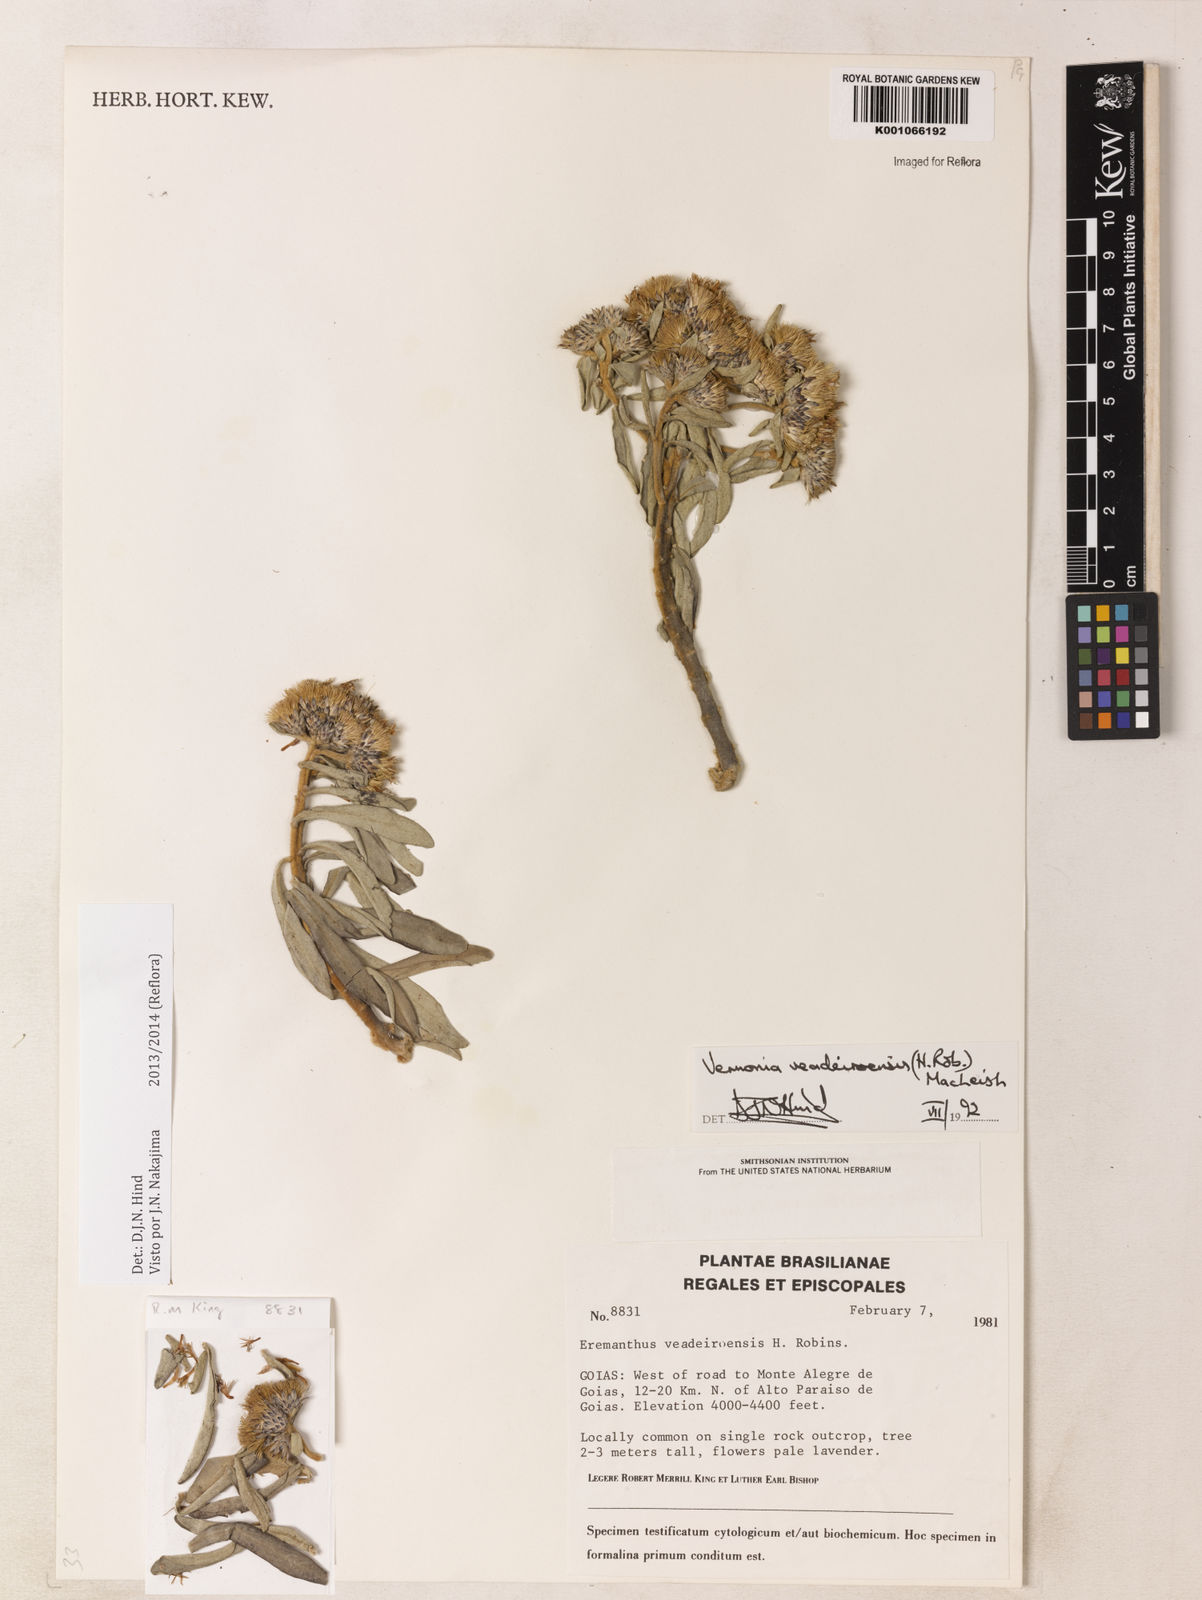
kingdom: Plantae
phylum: Tracheophyta
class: Magnoliopsida
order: Asterales
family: Asteraceae
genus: Eremanthus
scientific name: Eremanthus veadeiroensis
